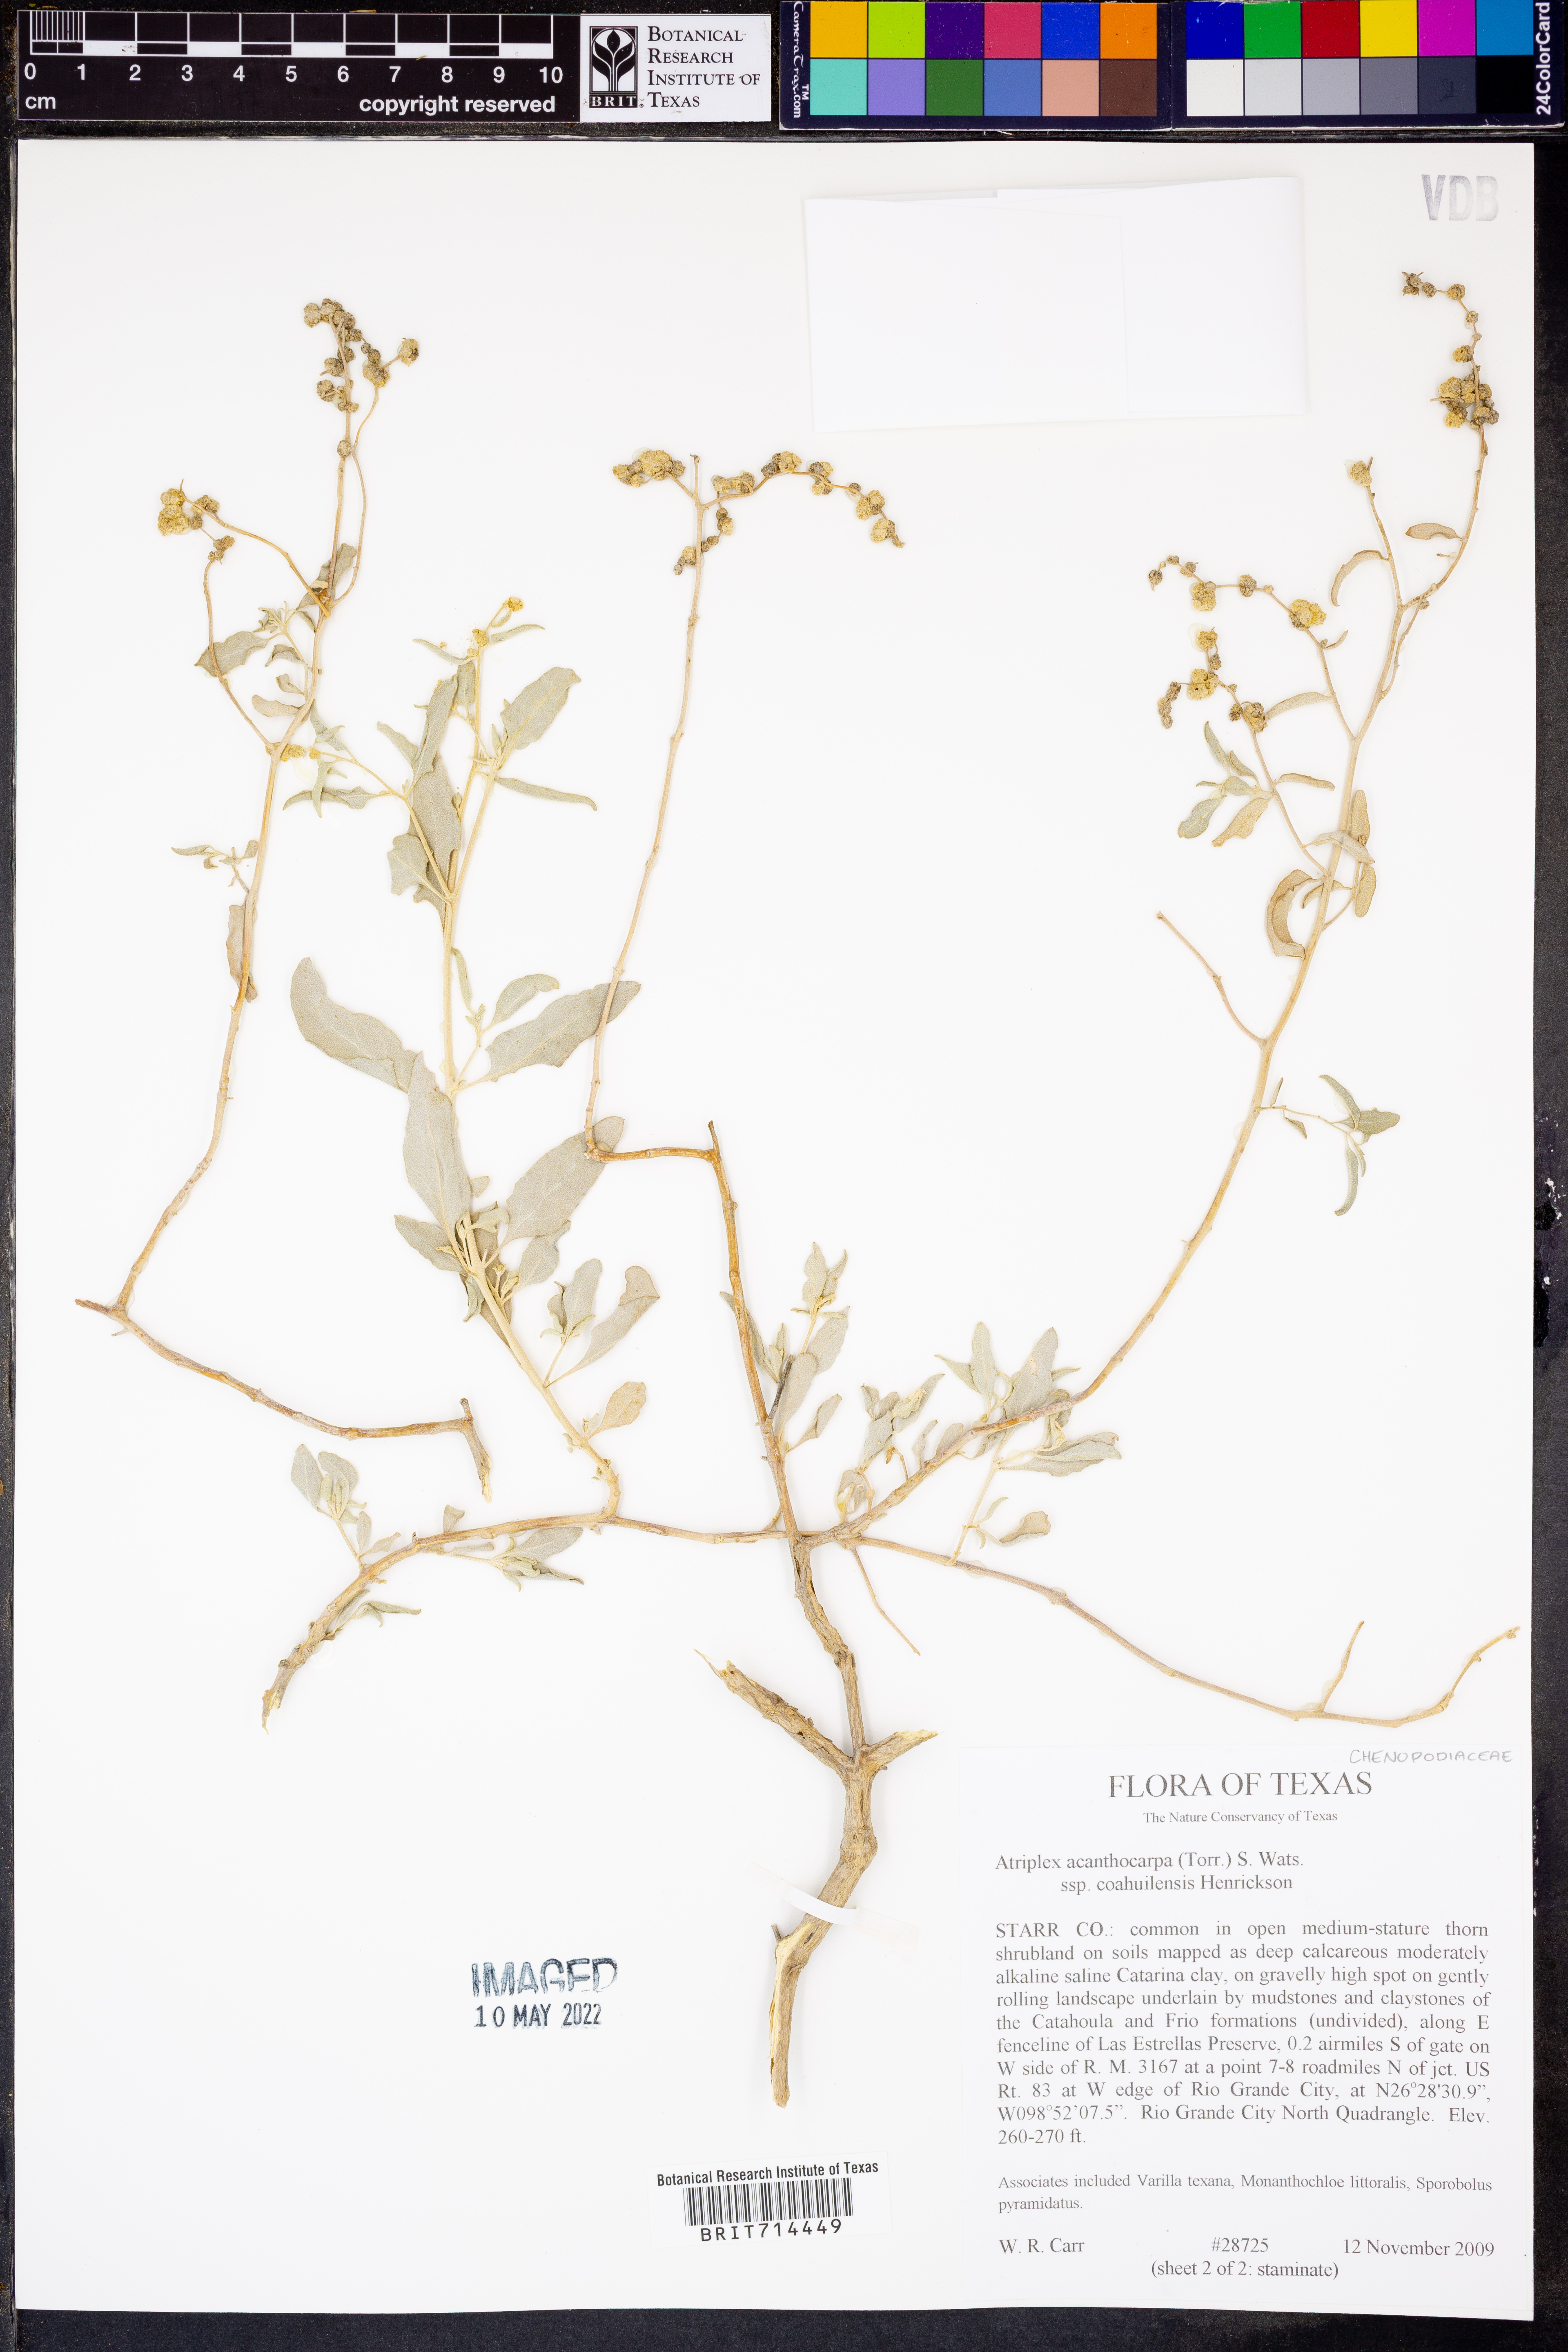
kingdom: Plantae
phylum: Tracheophyta
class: Magnoliopsida
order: Caryophyllales
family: Amaranthaceae
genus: Atriplex
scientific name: Atriplex acanthocarpa
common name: Burscale
